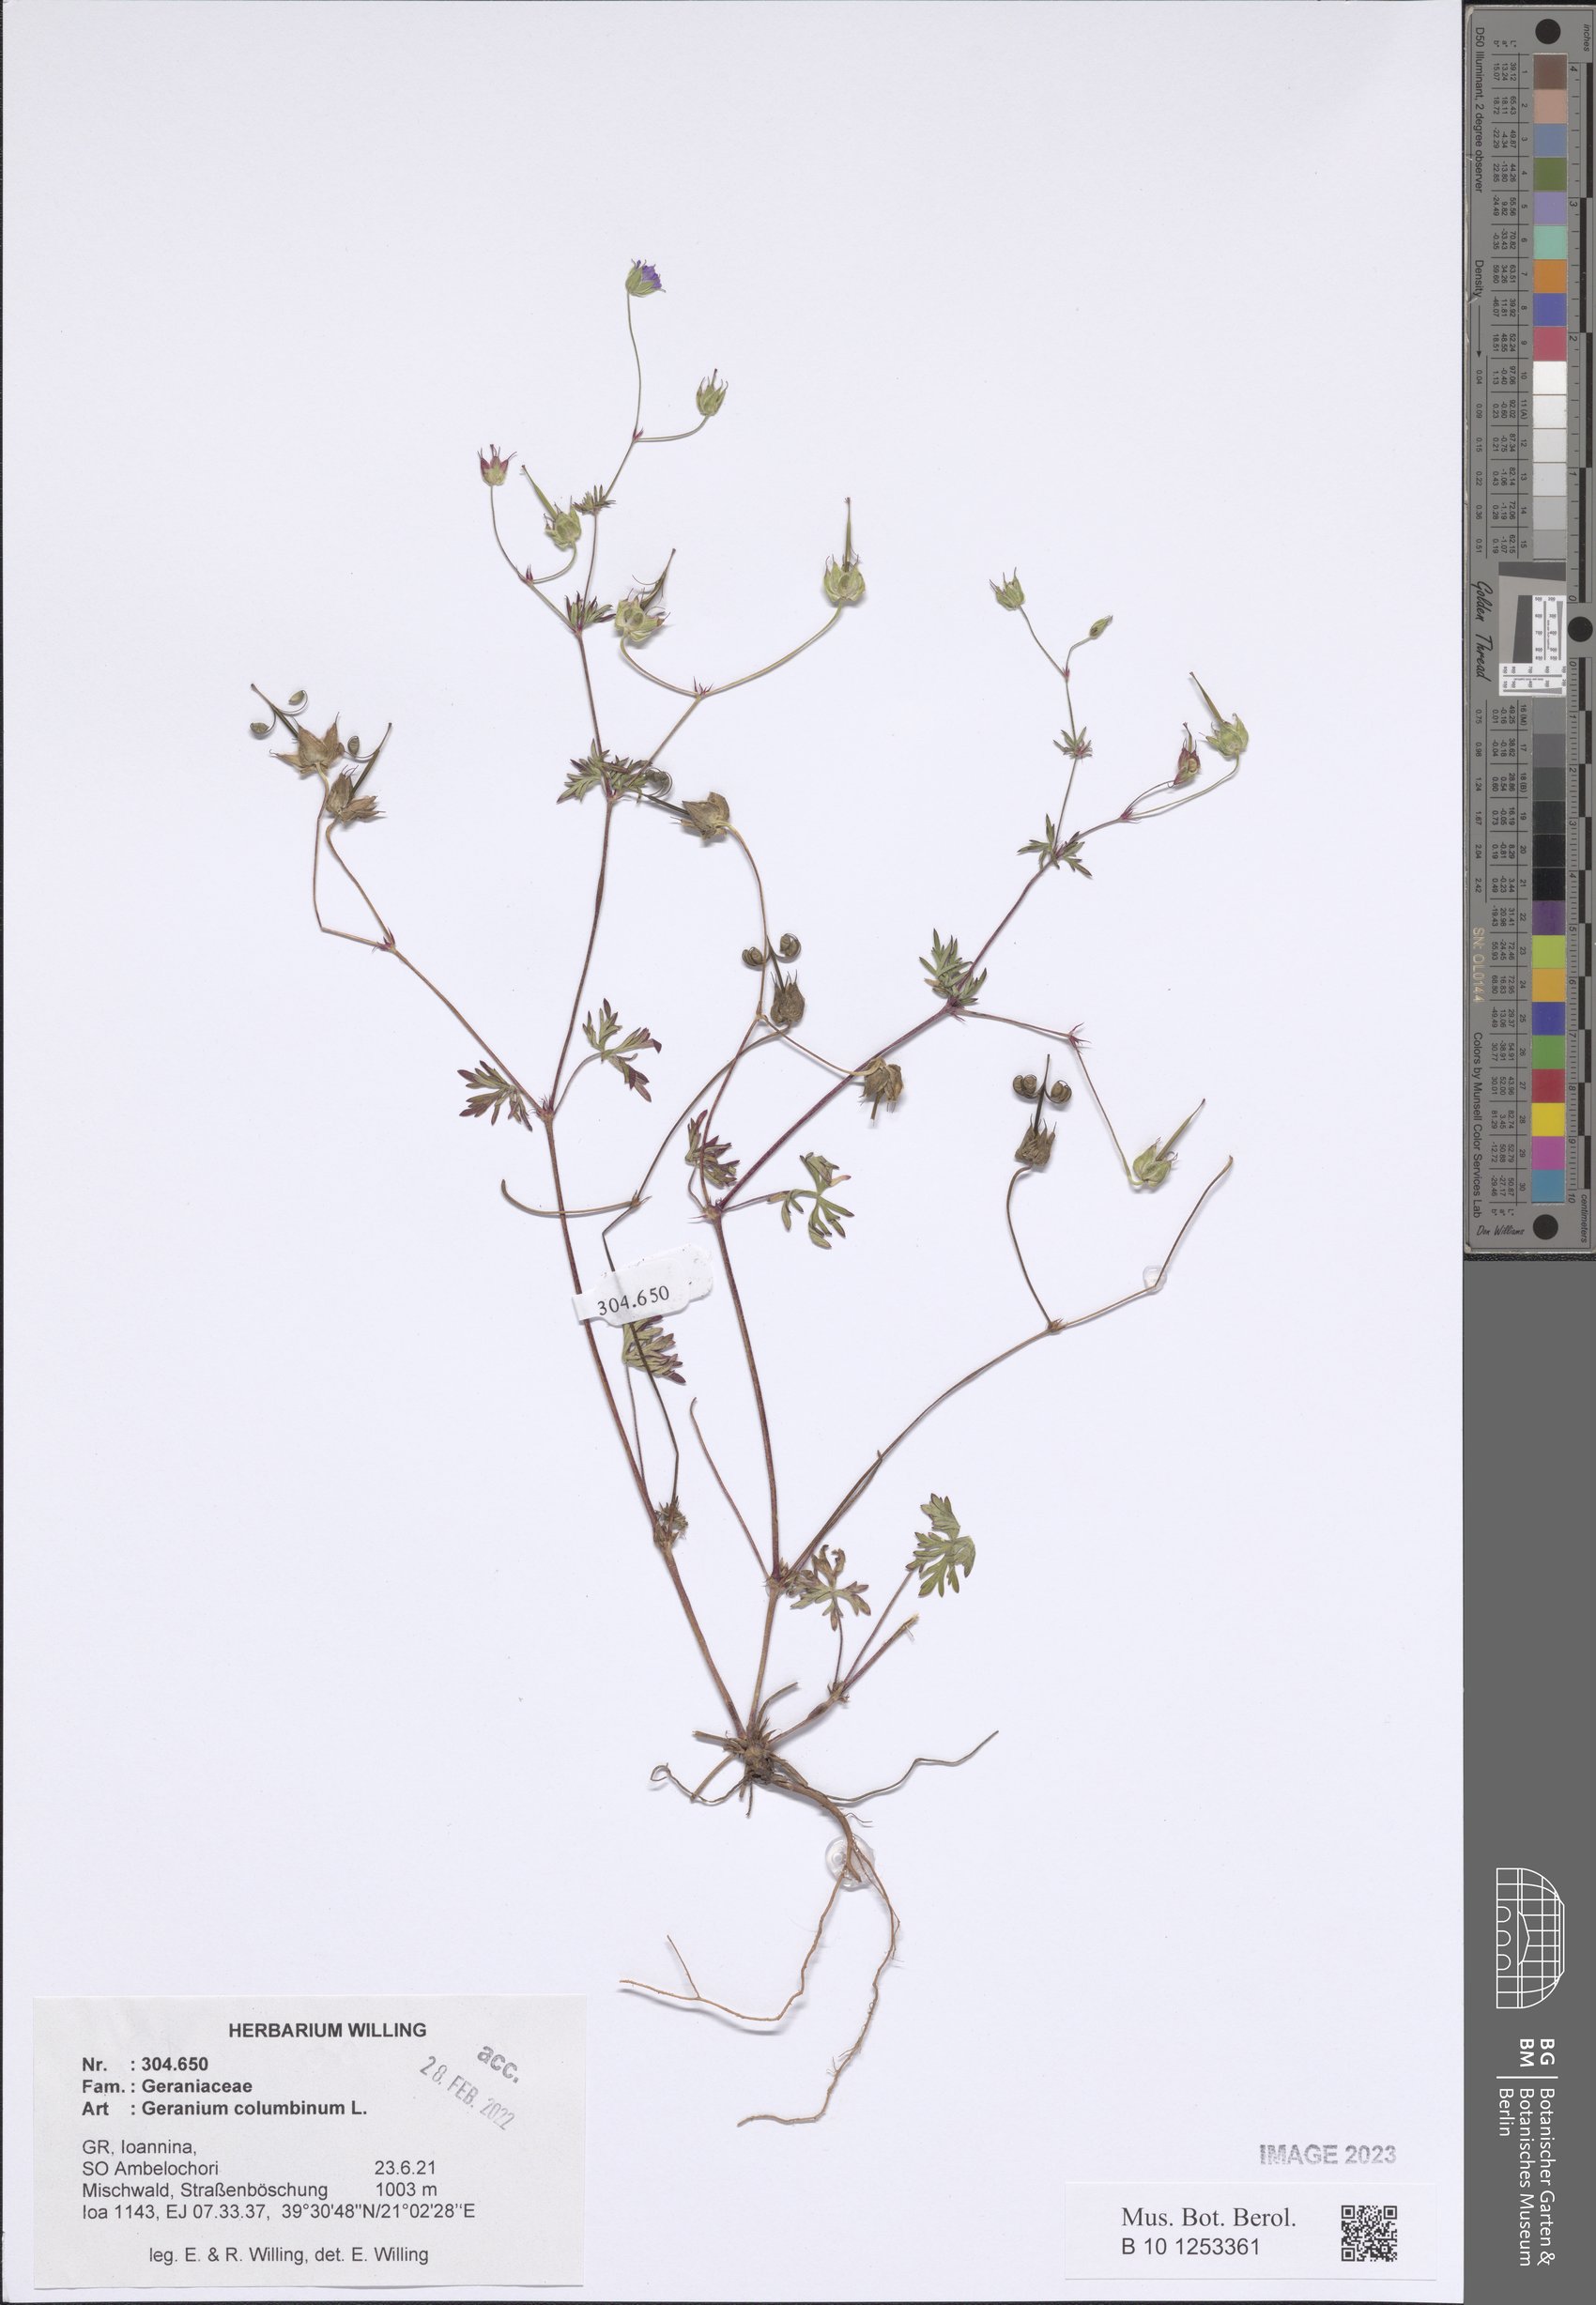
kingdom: Plantae
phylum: Tracheophyta
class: Magnoliopsida
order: Geraniales
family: Geraniaceae
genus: Geranium
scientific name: Geranium columbinum
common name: Long-stalked crane's-bill
